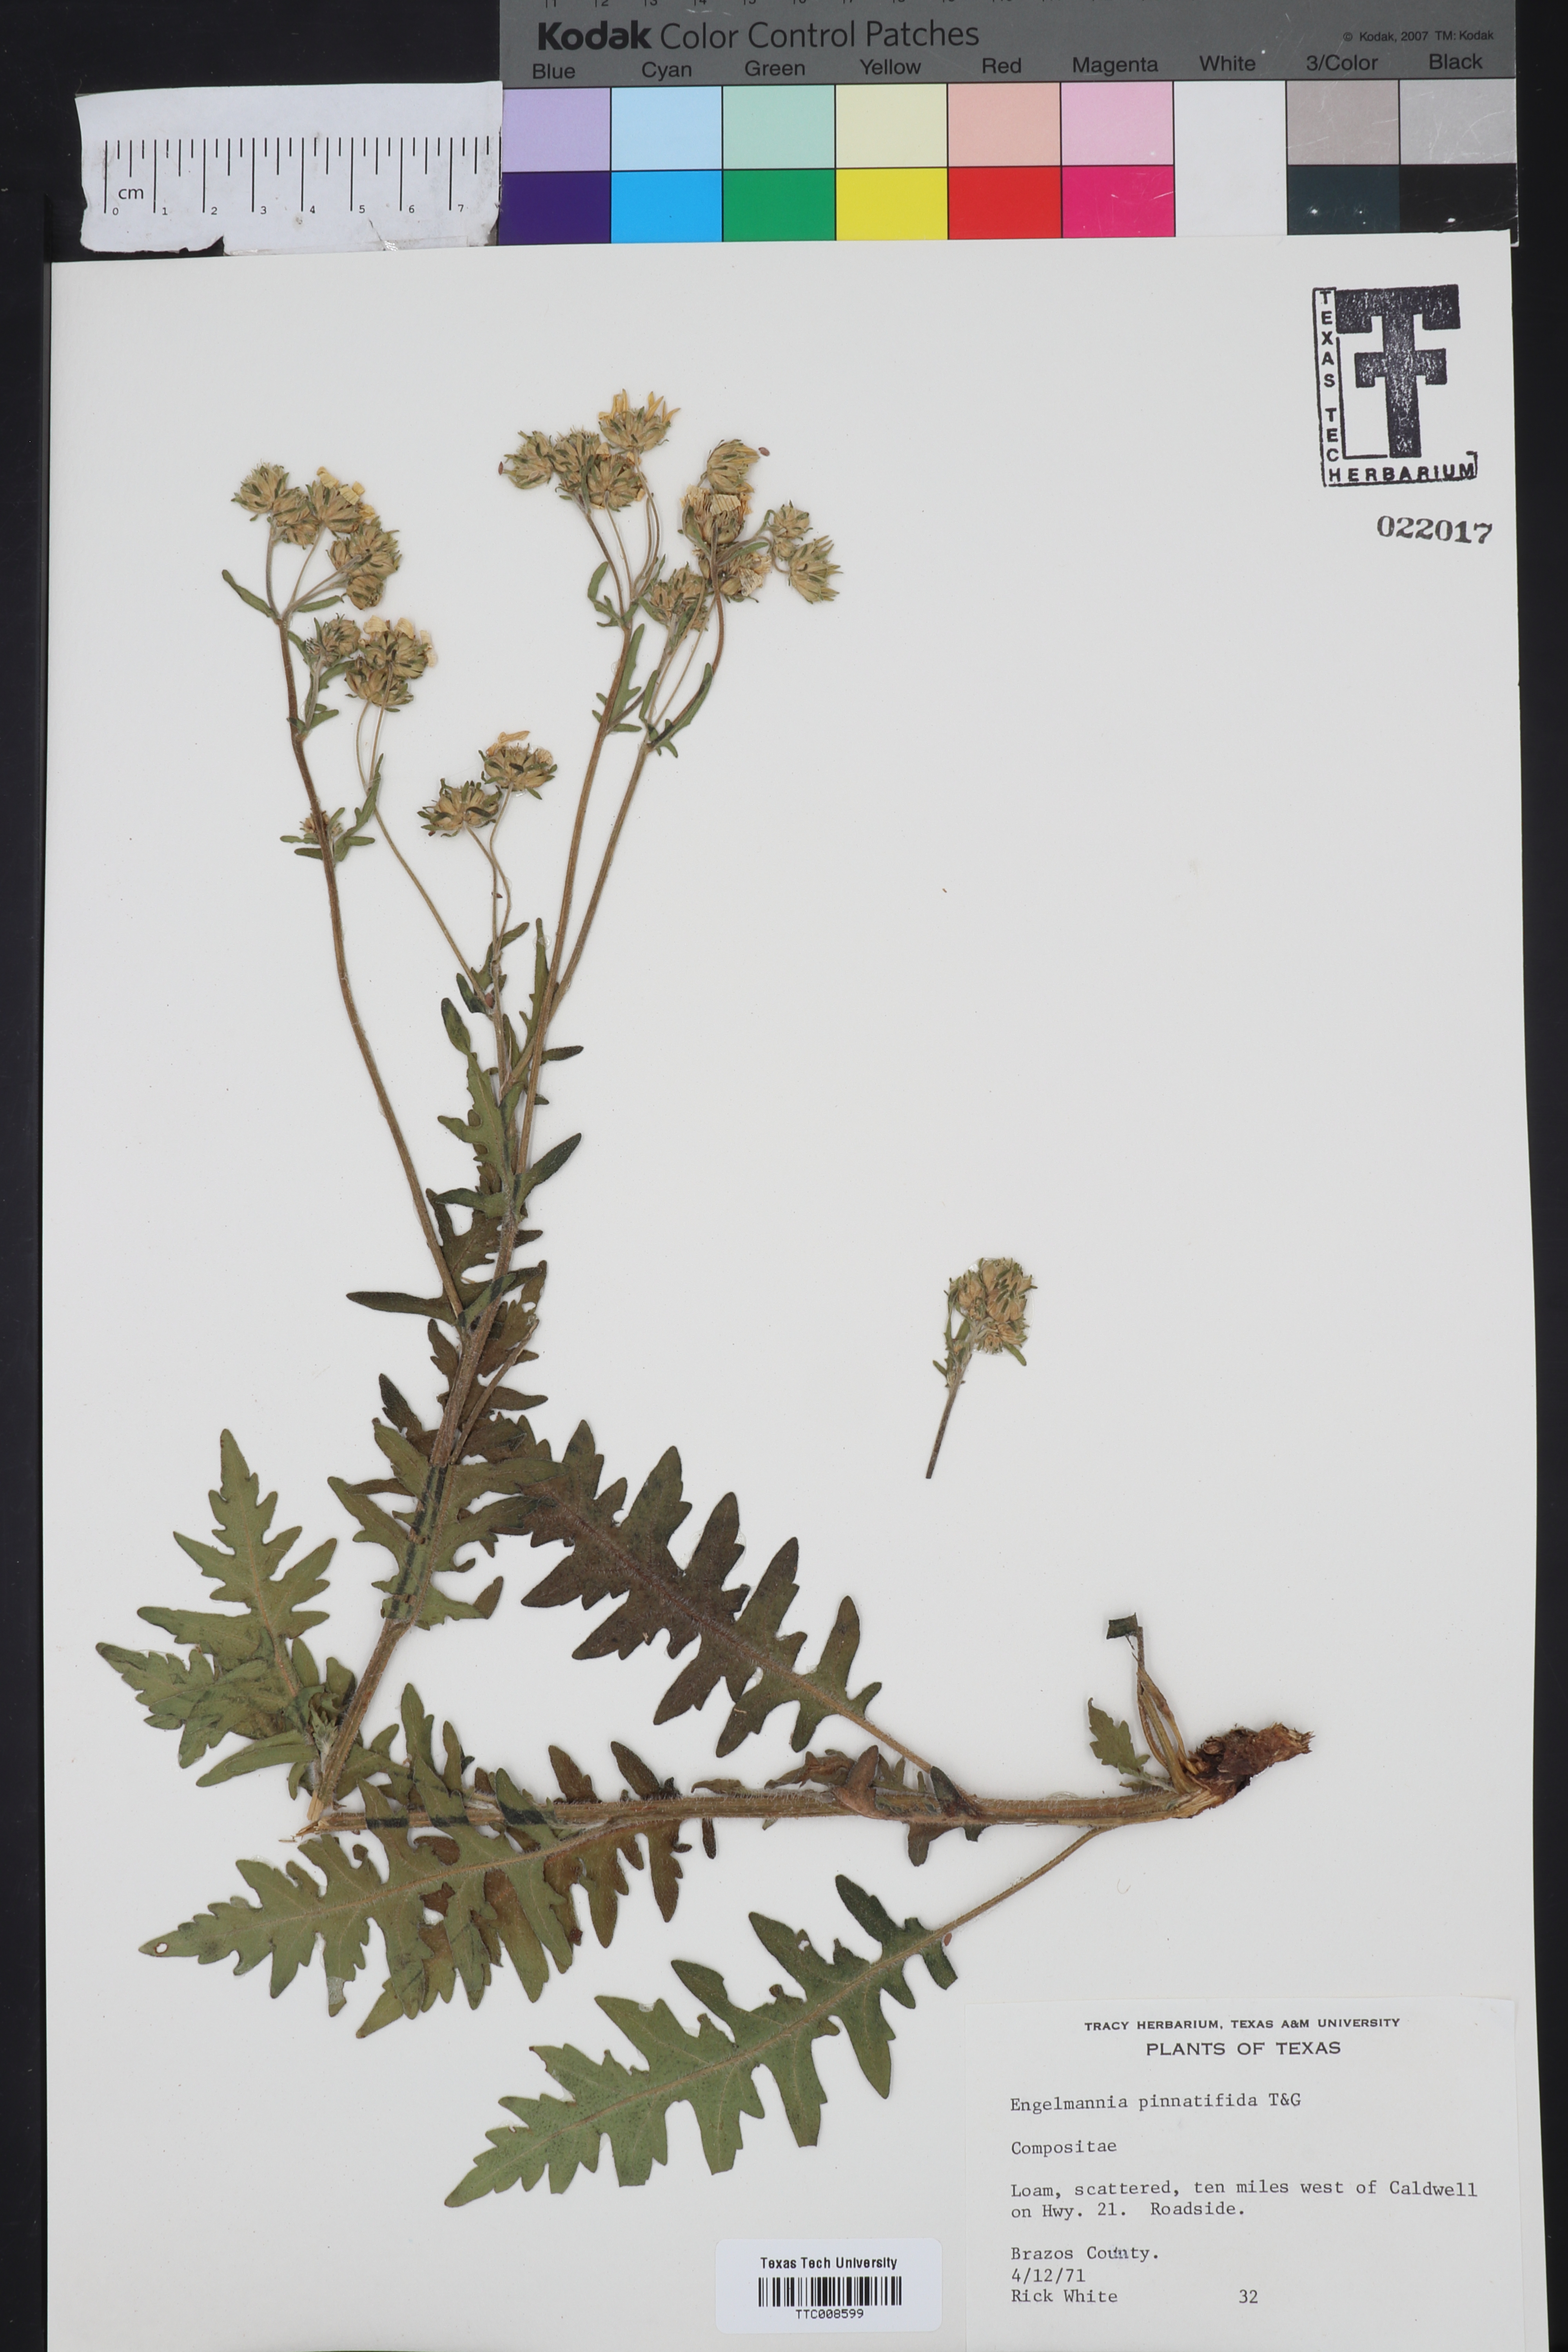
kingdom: Plantae
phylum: Tracheophyta
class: Magnoliopsida
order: Asterales
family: Asteraceae
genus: Engelmannia
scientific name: Engelmannia peristenia
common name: Engelmann's daisy
